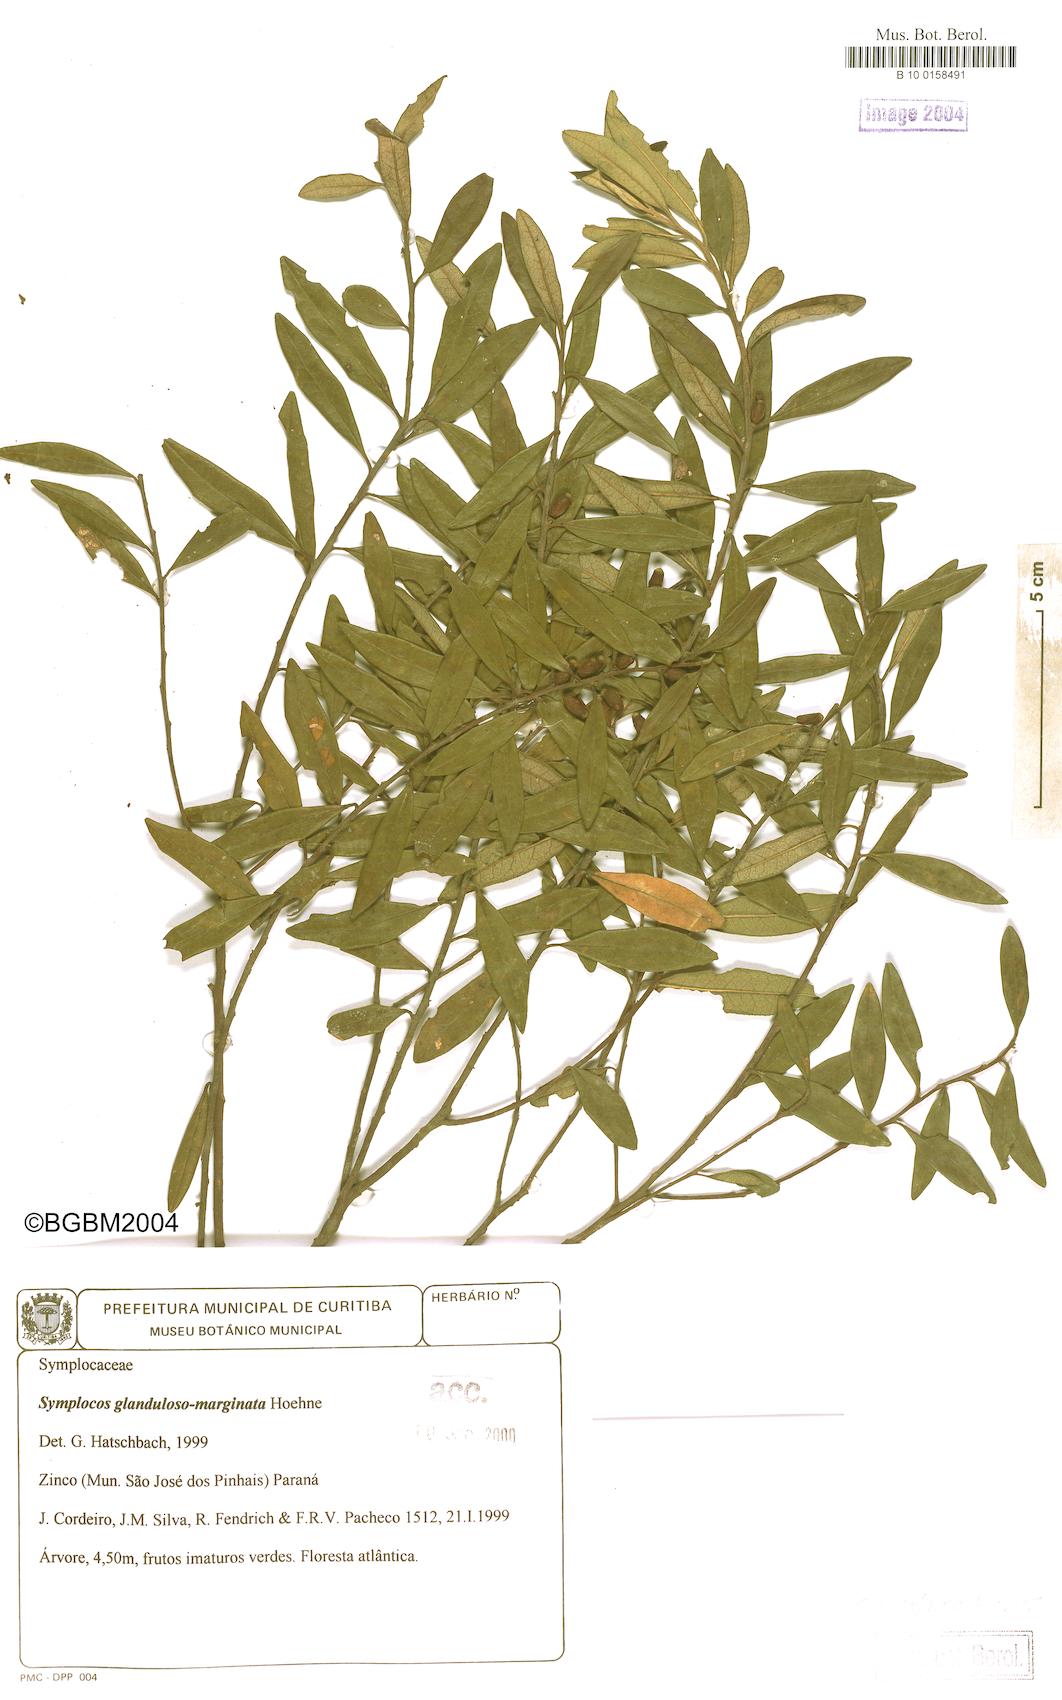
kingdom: Plantae
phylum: Tracheophyta
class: Magnoliopsida
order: Ericales
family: Symplocaceae
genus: Symplocos
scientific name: Symplocos glandulosomarginata
